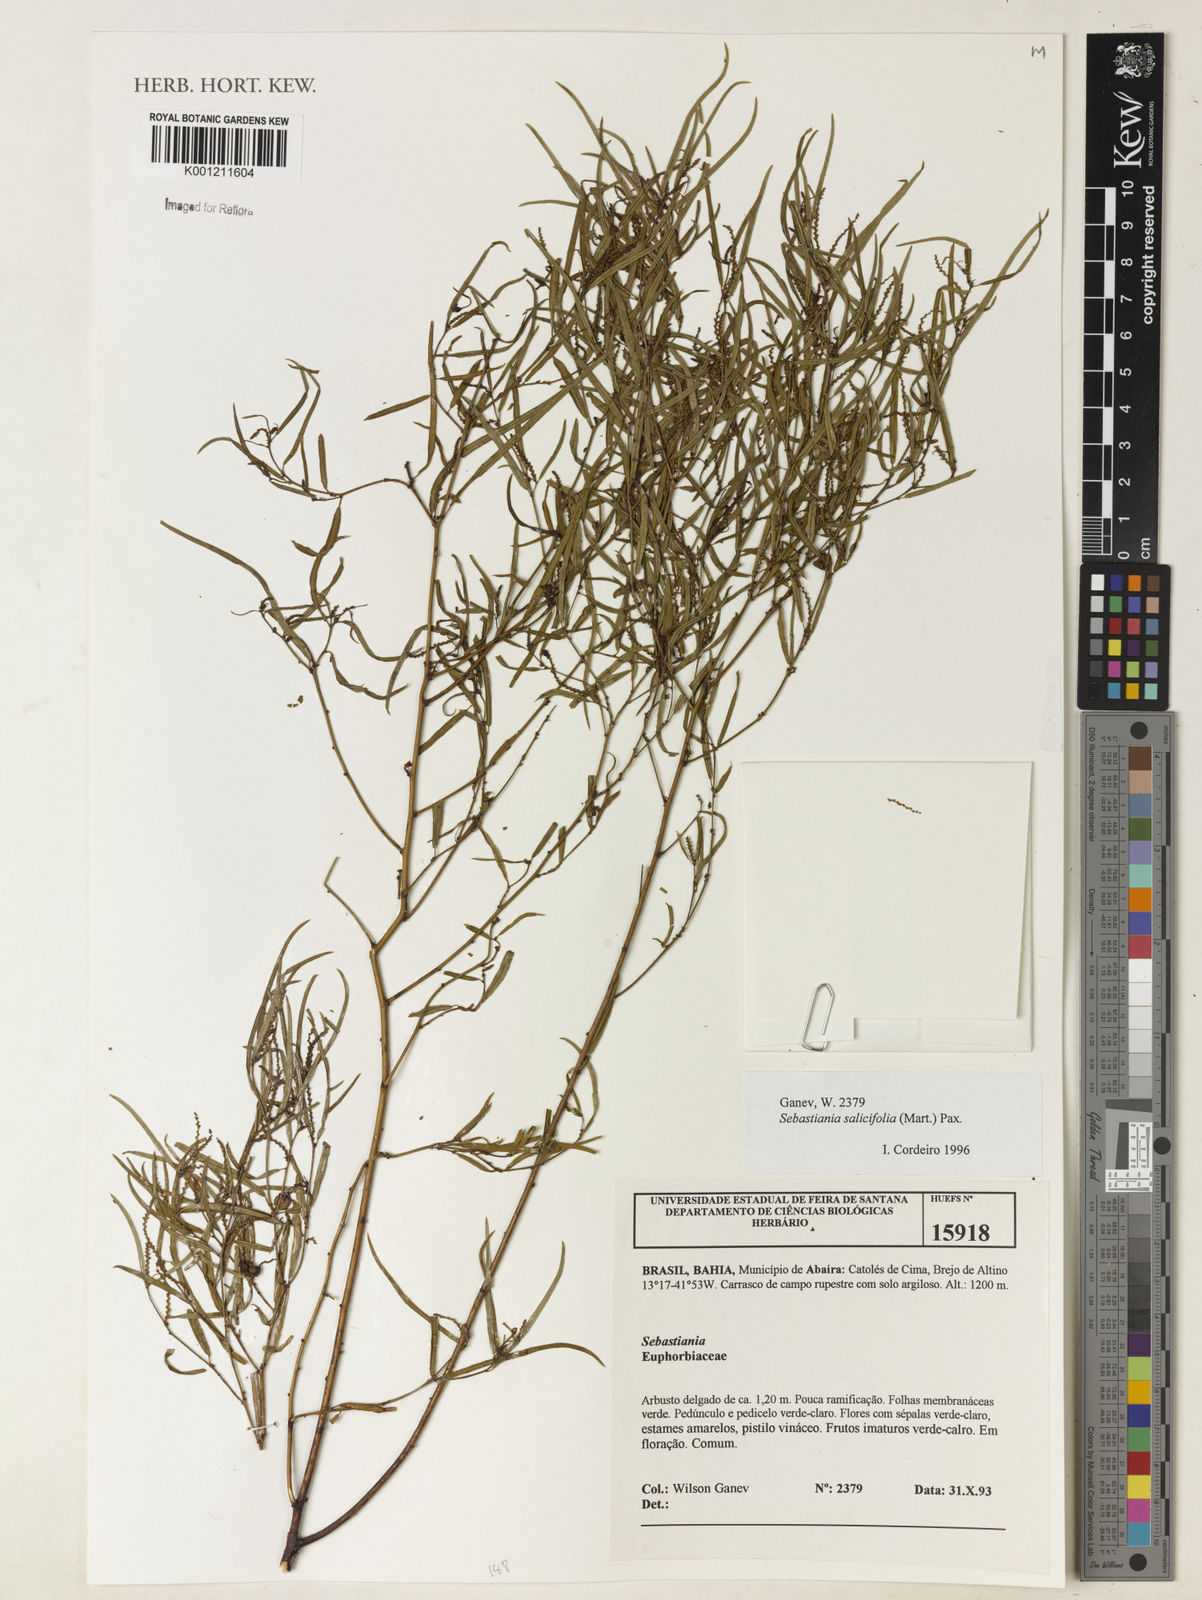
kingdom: Plantae
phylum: Tracheophyta
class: Magnoliopsida
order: Malpighiales
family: Euphorbiaceae
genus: Microstachys
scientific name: Microstachys
